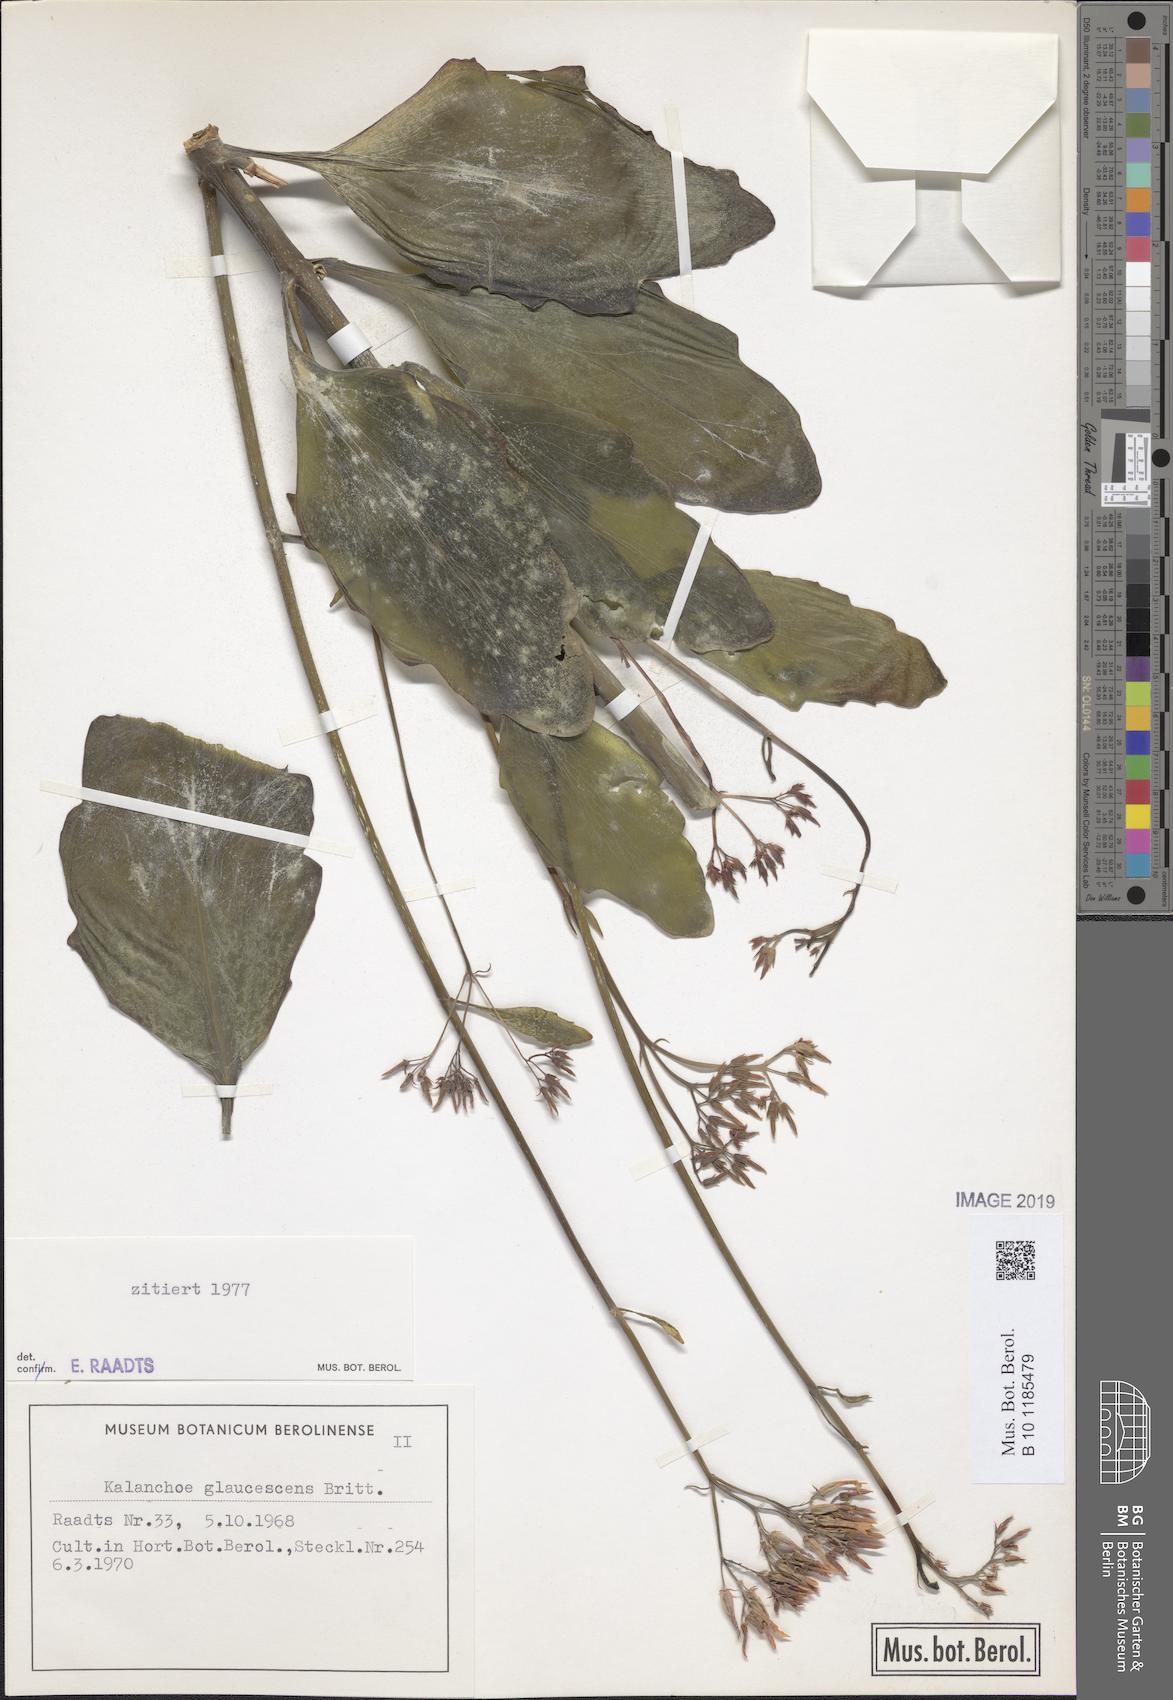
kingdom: Plantae
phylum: Tracheophyta
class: Magnoliopsida
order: Saxifragales
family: Crassulaceae
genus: Kalanchoe
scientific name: Kalanchoe glaucescens
